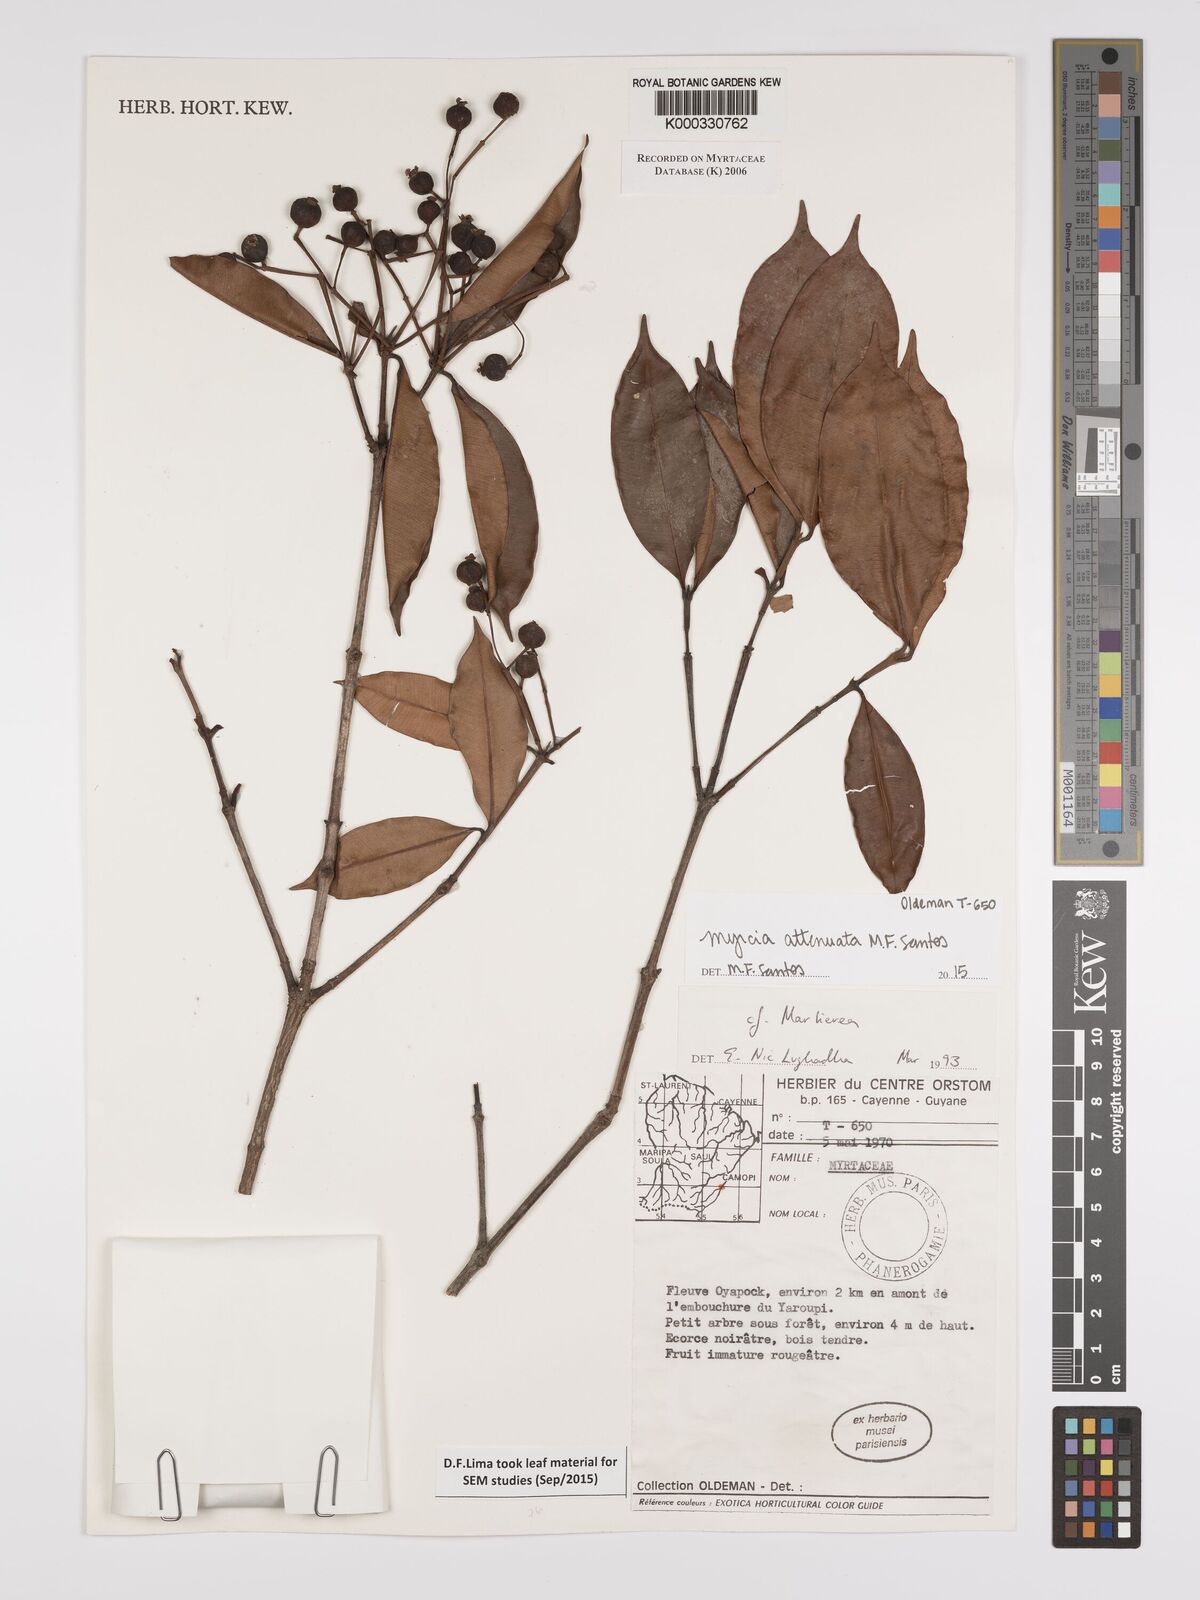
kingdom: Plantae
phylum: Tracheophyta
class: Magnoliopsida
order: Myrtales
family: Myrtaceae
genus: Marlierea
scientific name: Marlierea
